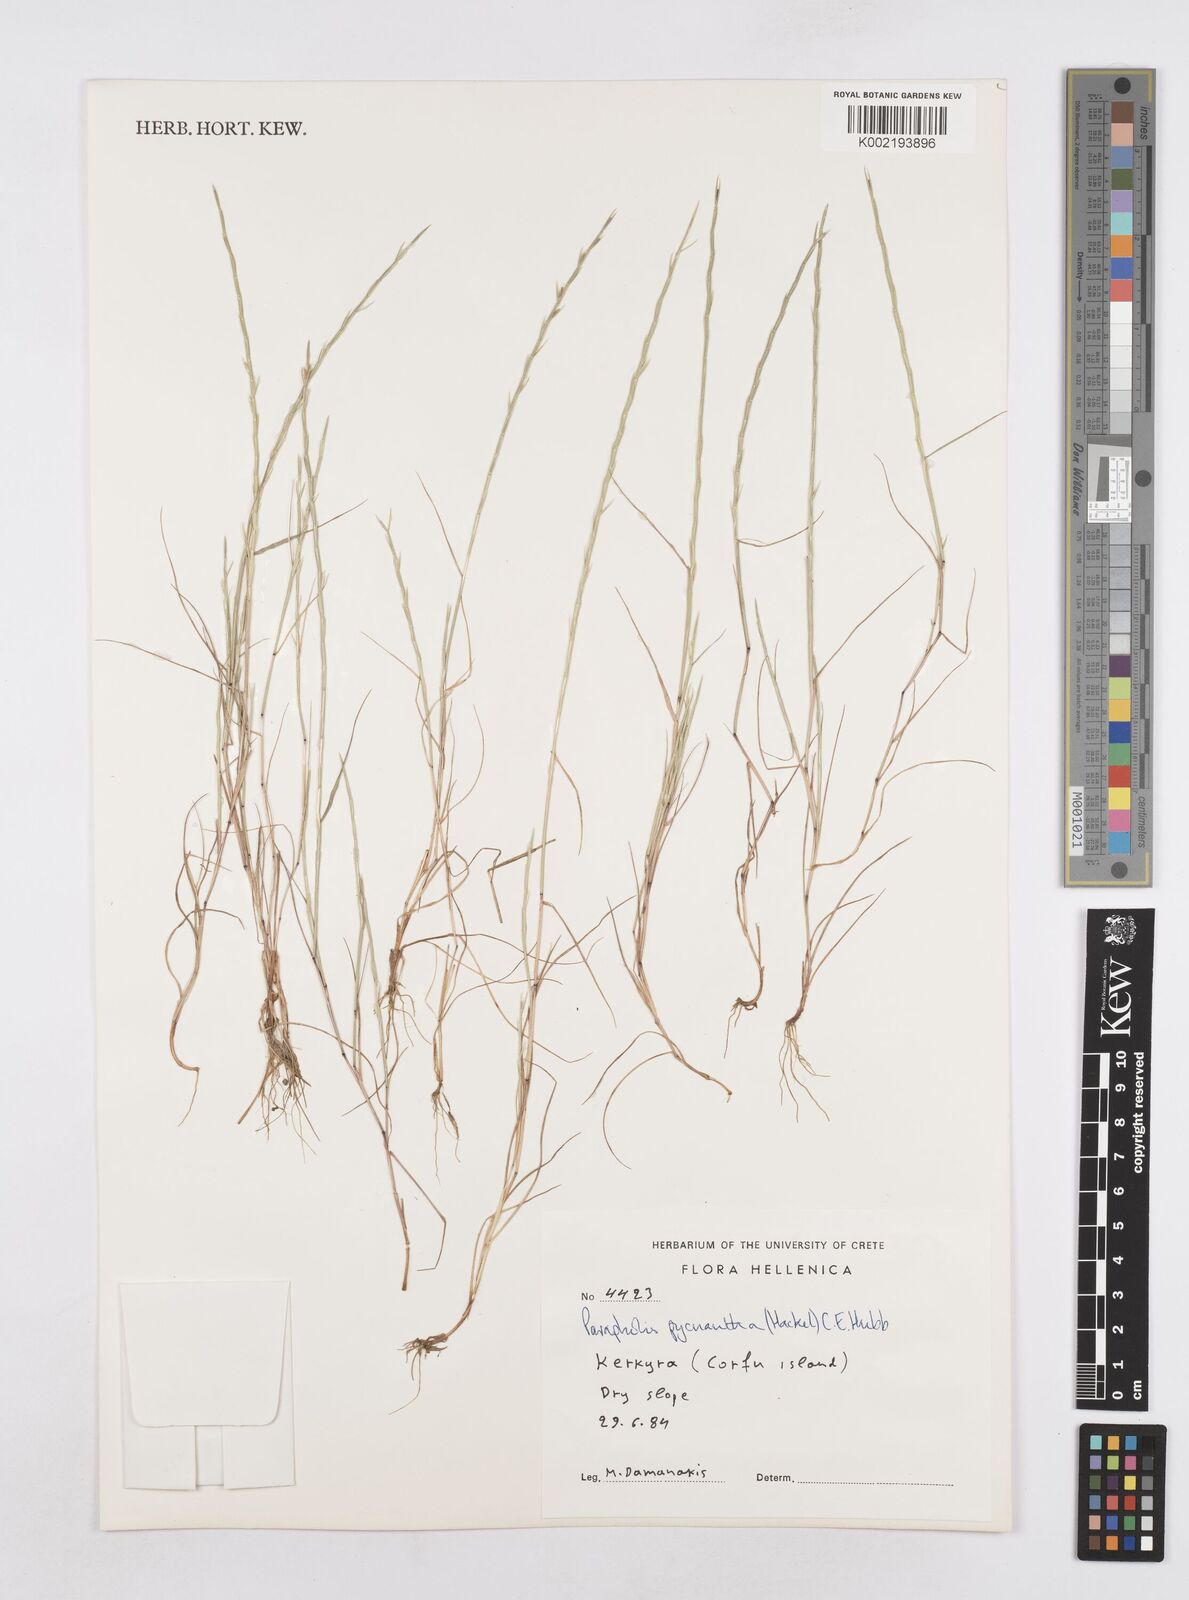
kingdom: Plantae
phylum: Tracheophyta
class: Liliopsida
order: Poales
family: Poaceae
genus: Parapholis
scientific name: Parapholis pycnantha
